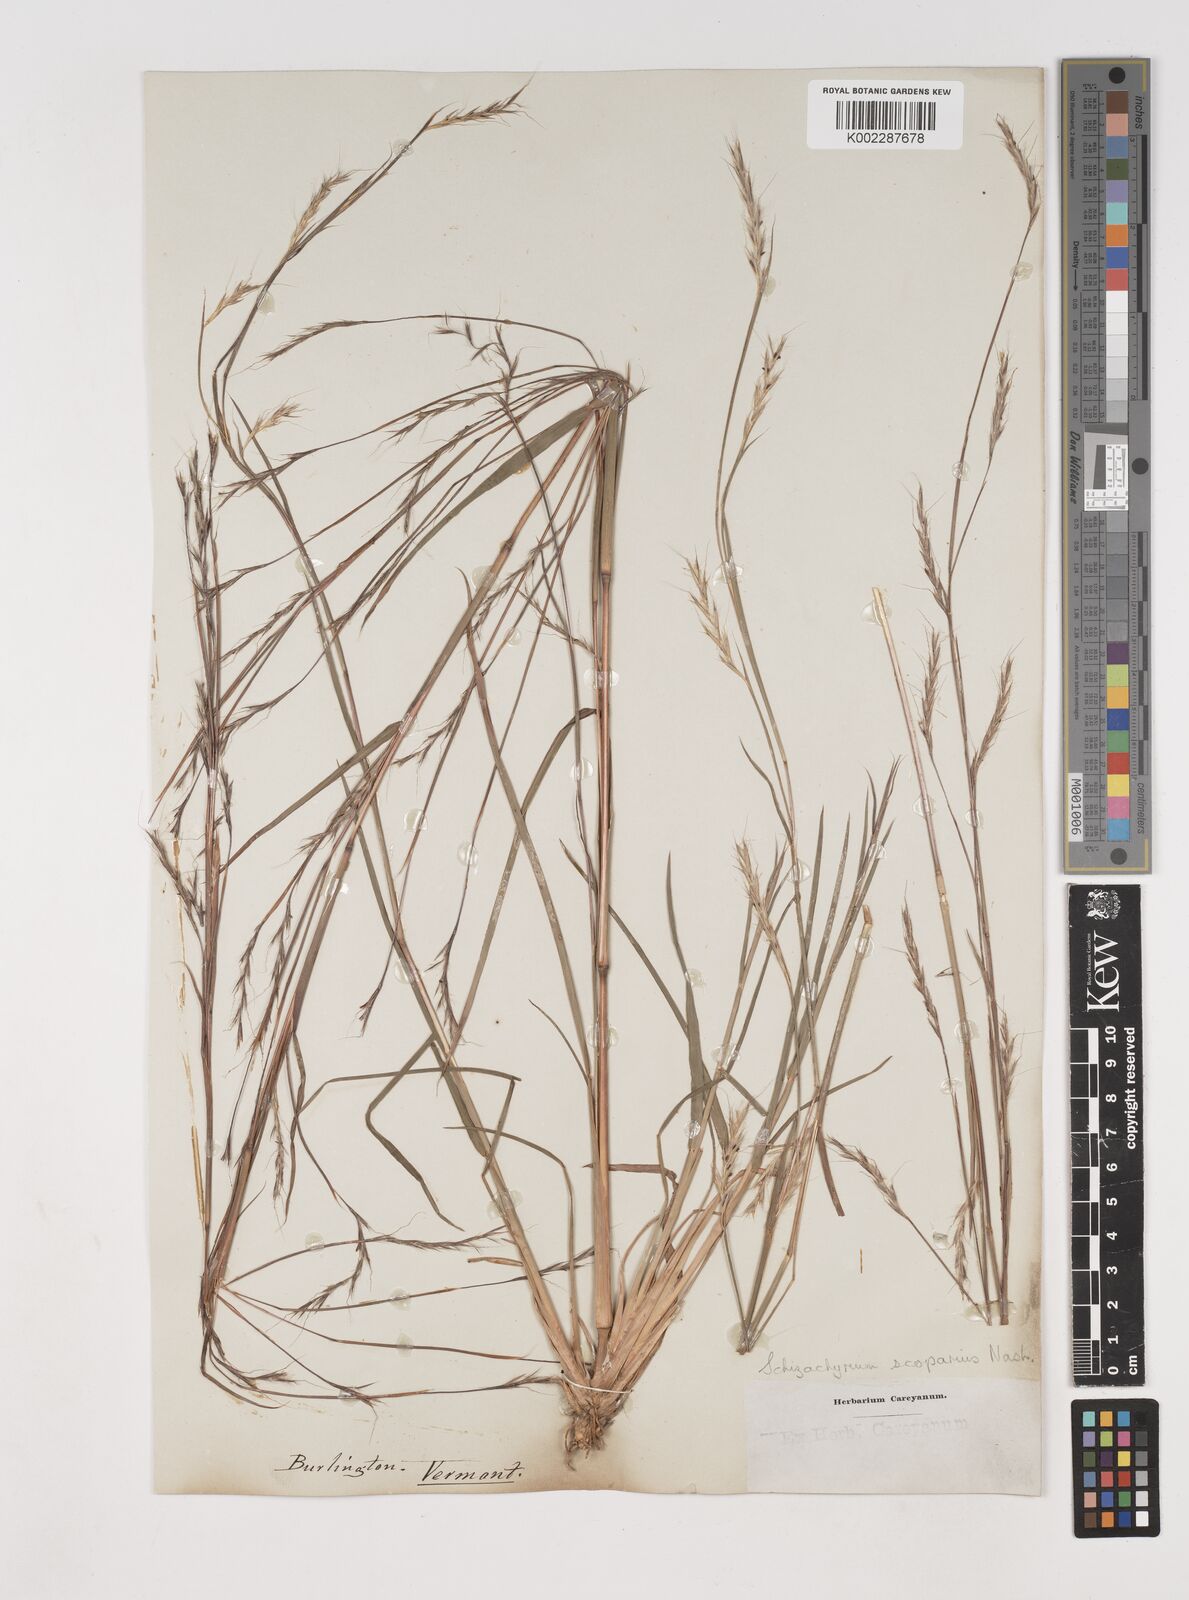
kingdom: Plantae
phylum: Tracheophyta
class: Liliopsida
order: Poales
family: Poaceae
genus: Schizachyrium
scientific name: Schizachyrium scoparium
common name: Little bluestem
